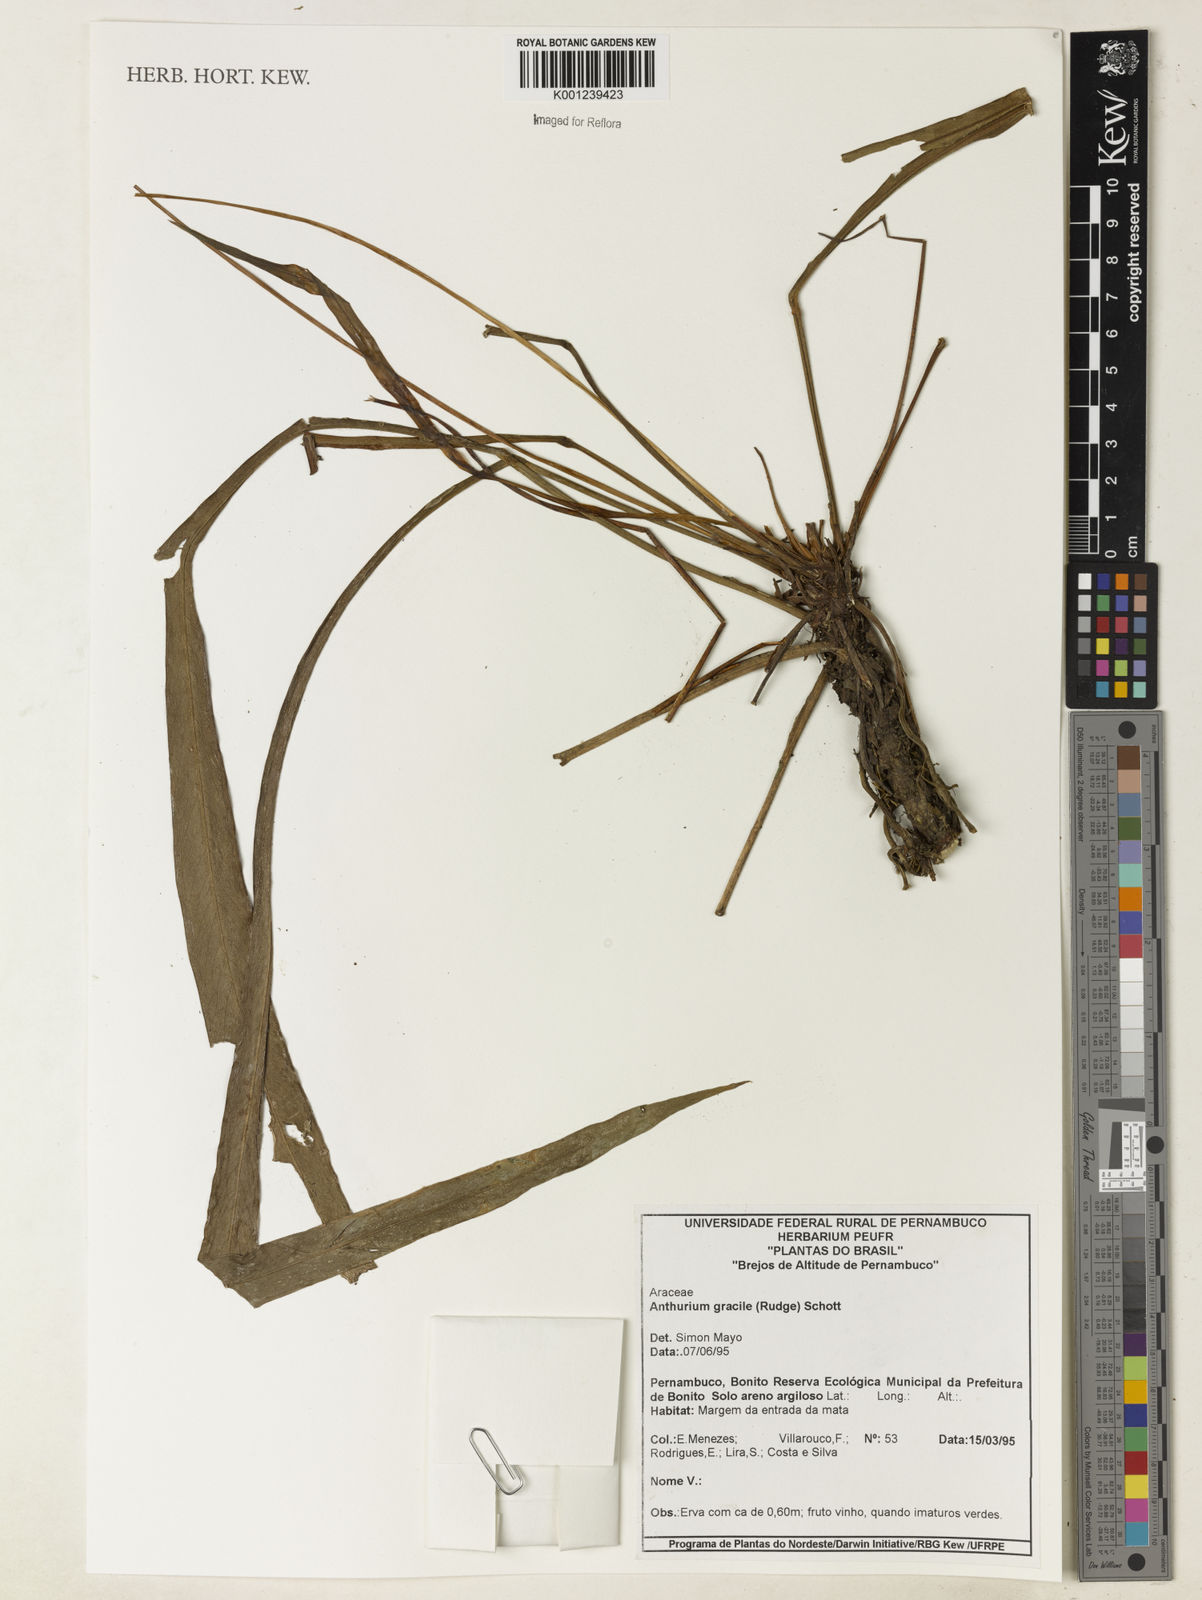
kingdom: Plantae
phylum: Tracheophyta
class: Liliopsida
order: Alismatales
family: Araceae
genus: Anthurium
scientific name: Anthurium gracile
